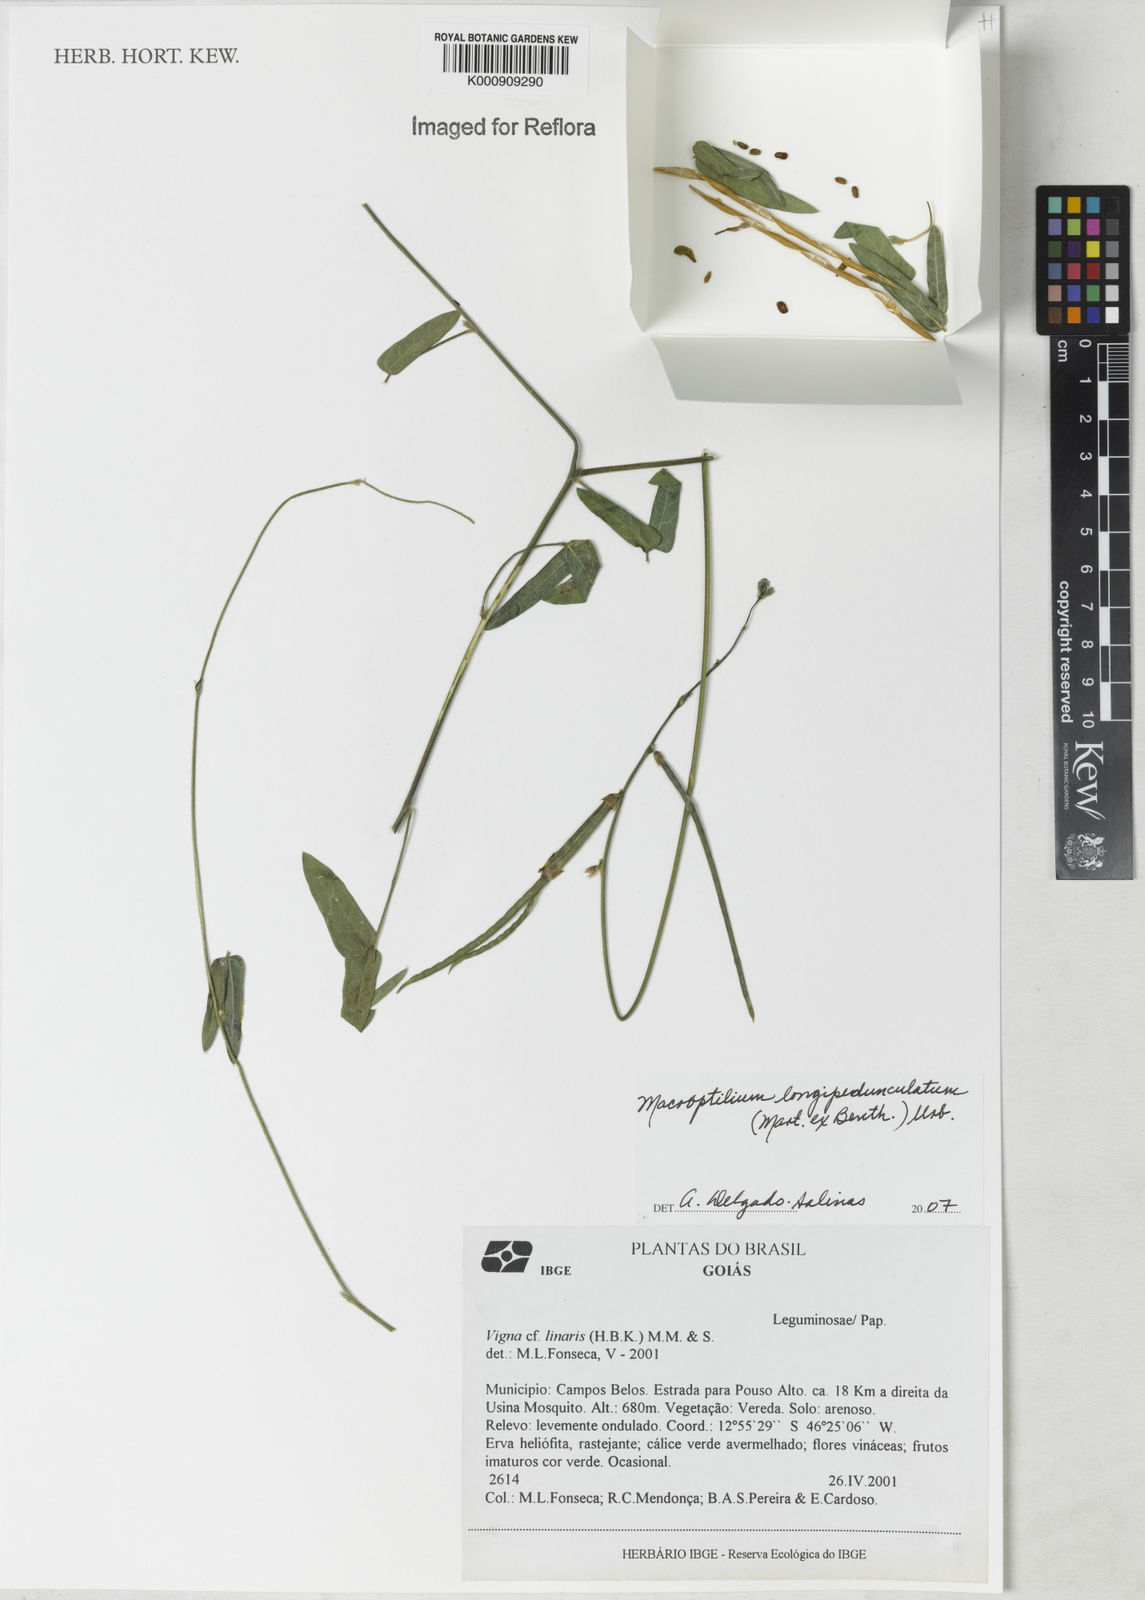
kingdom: Plantae
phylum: Tracheophyta
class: Magnoliopsida
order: Fabales
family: Fabaceae
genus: Macroptilium
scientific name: Macroptilium
